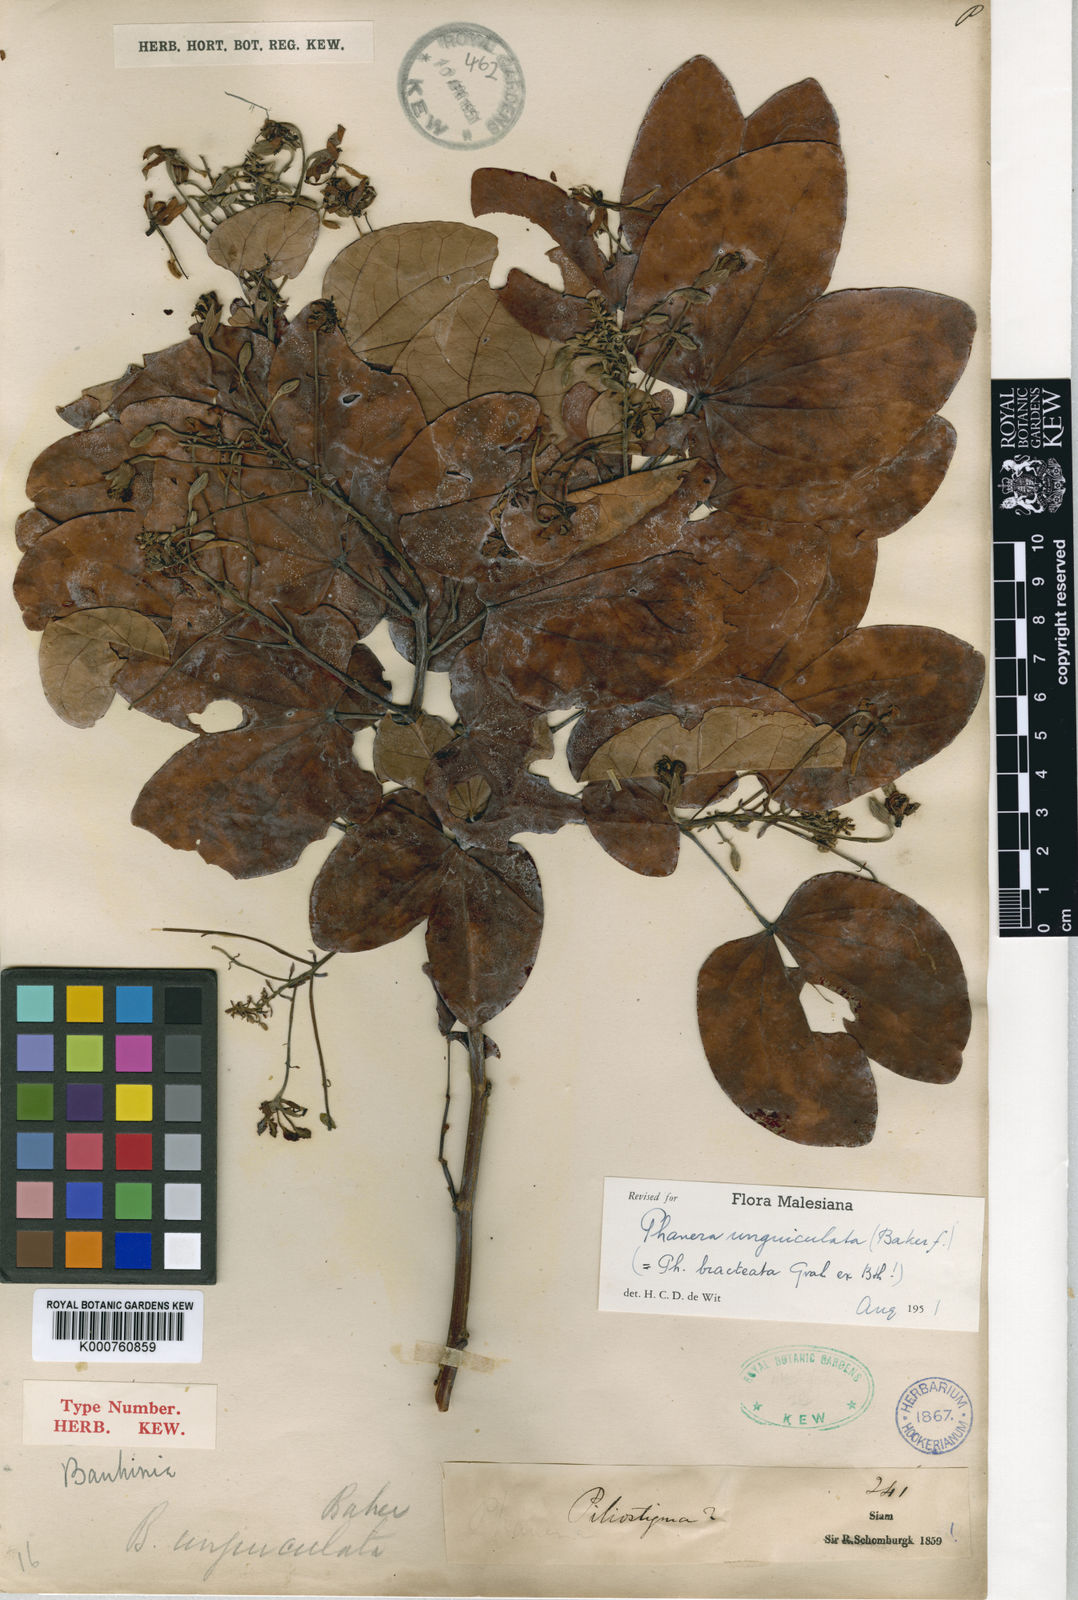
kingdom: Plantae
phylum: Tracheophyta
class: Magnoliopsida
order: Fabales
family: Fabaceae
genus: Phanera
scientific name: Phanera bracteata
